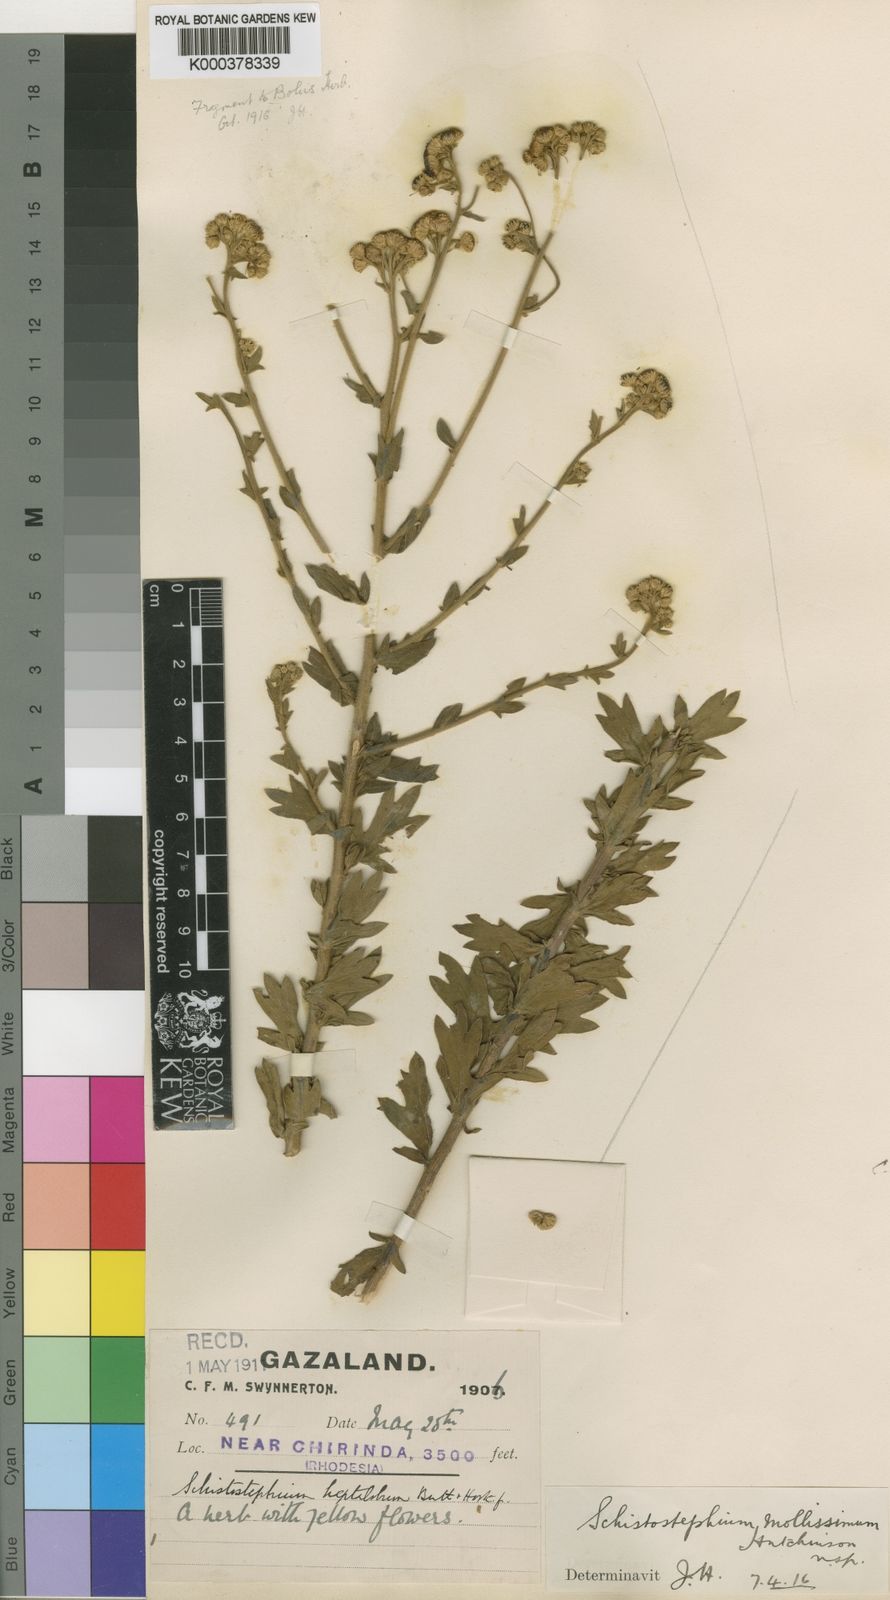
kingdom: Plantae
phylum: Tracheophyta
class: Magnoliopsida
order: Asterales
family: Asteraceae
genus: Schistostephium
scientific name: Schistostephium heptalobum
